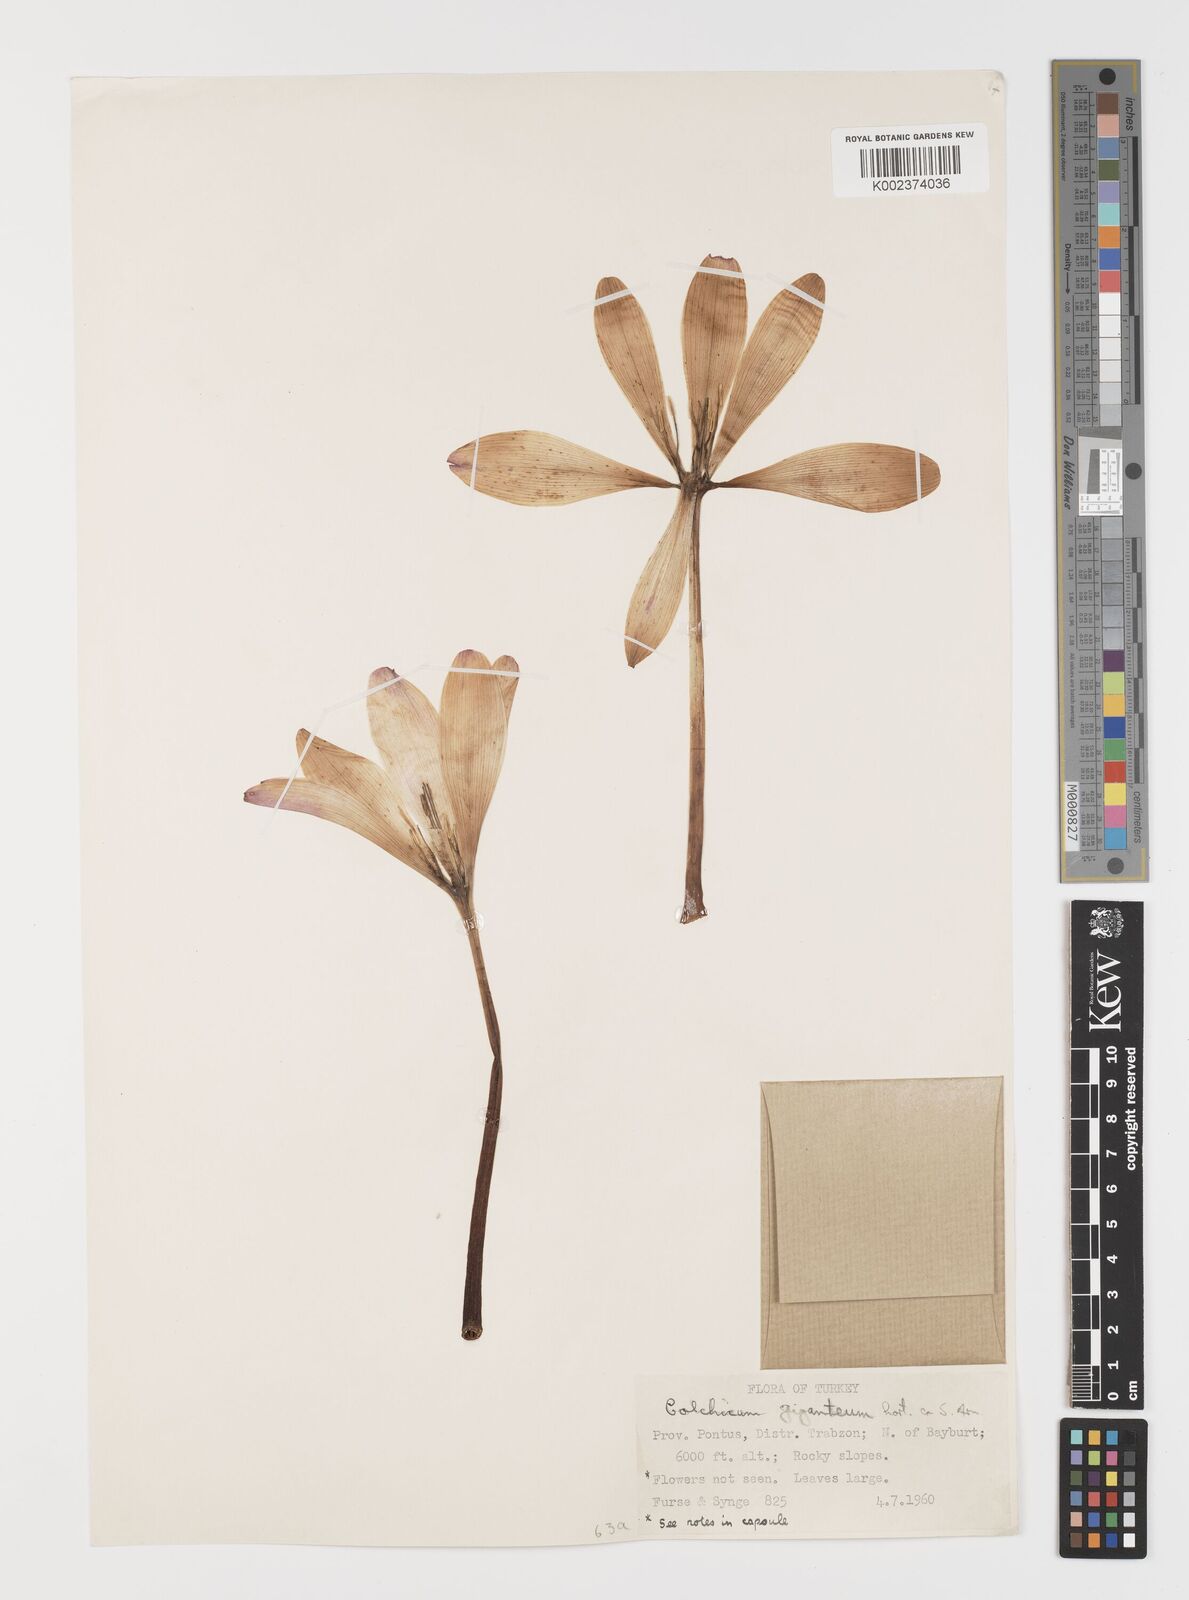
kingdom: Plantae
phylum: Tracheophyta
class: Liliopsida
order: Liliales
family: Colchicaceae
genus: Colchicum
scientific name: Colchicum speciosum
